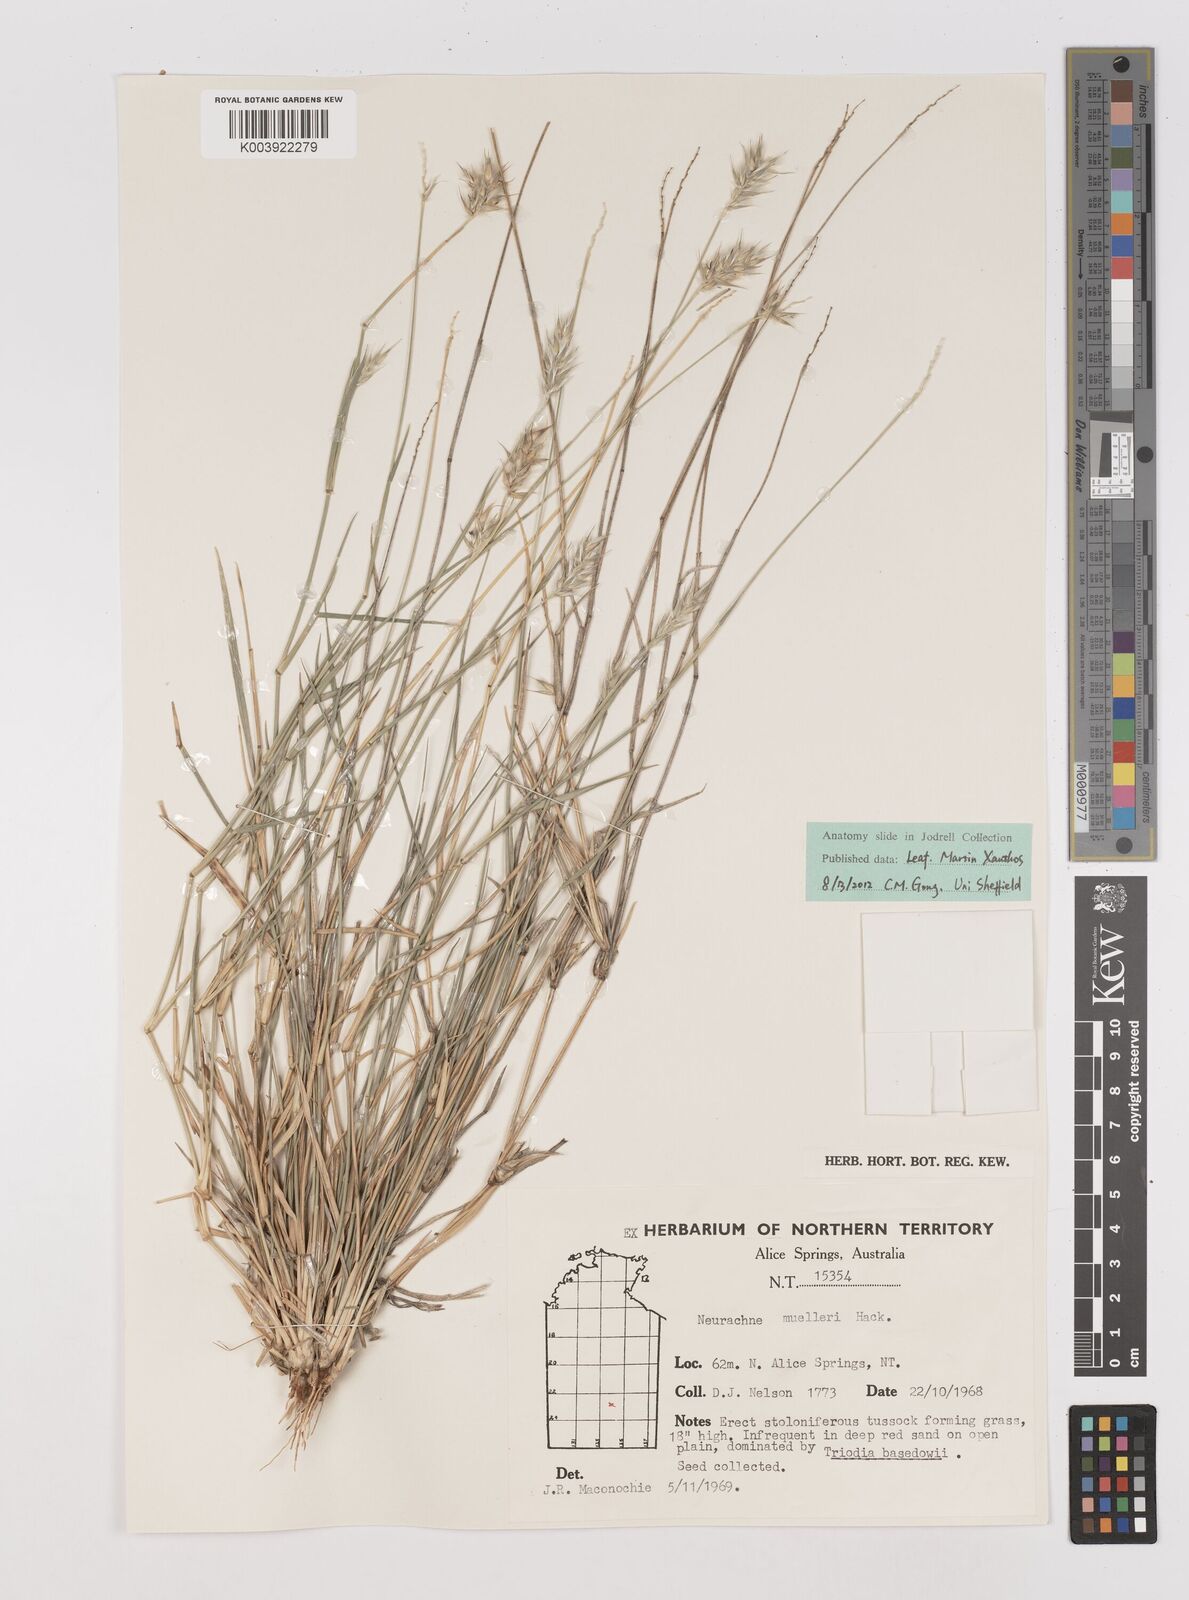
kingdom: Plantae
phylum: Tracheophyta
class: Liliopsida
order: Poales
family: Poaceae
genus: Neurachne
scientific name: Neurachne muelleri
